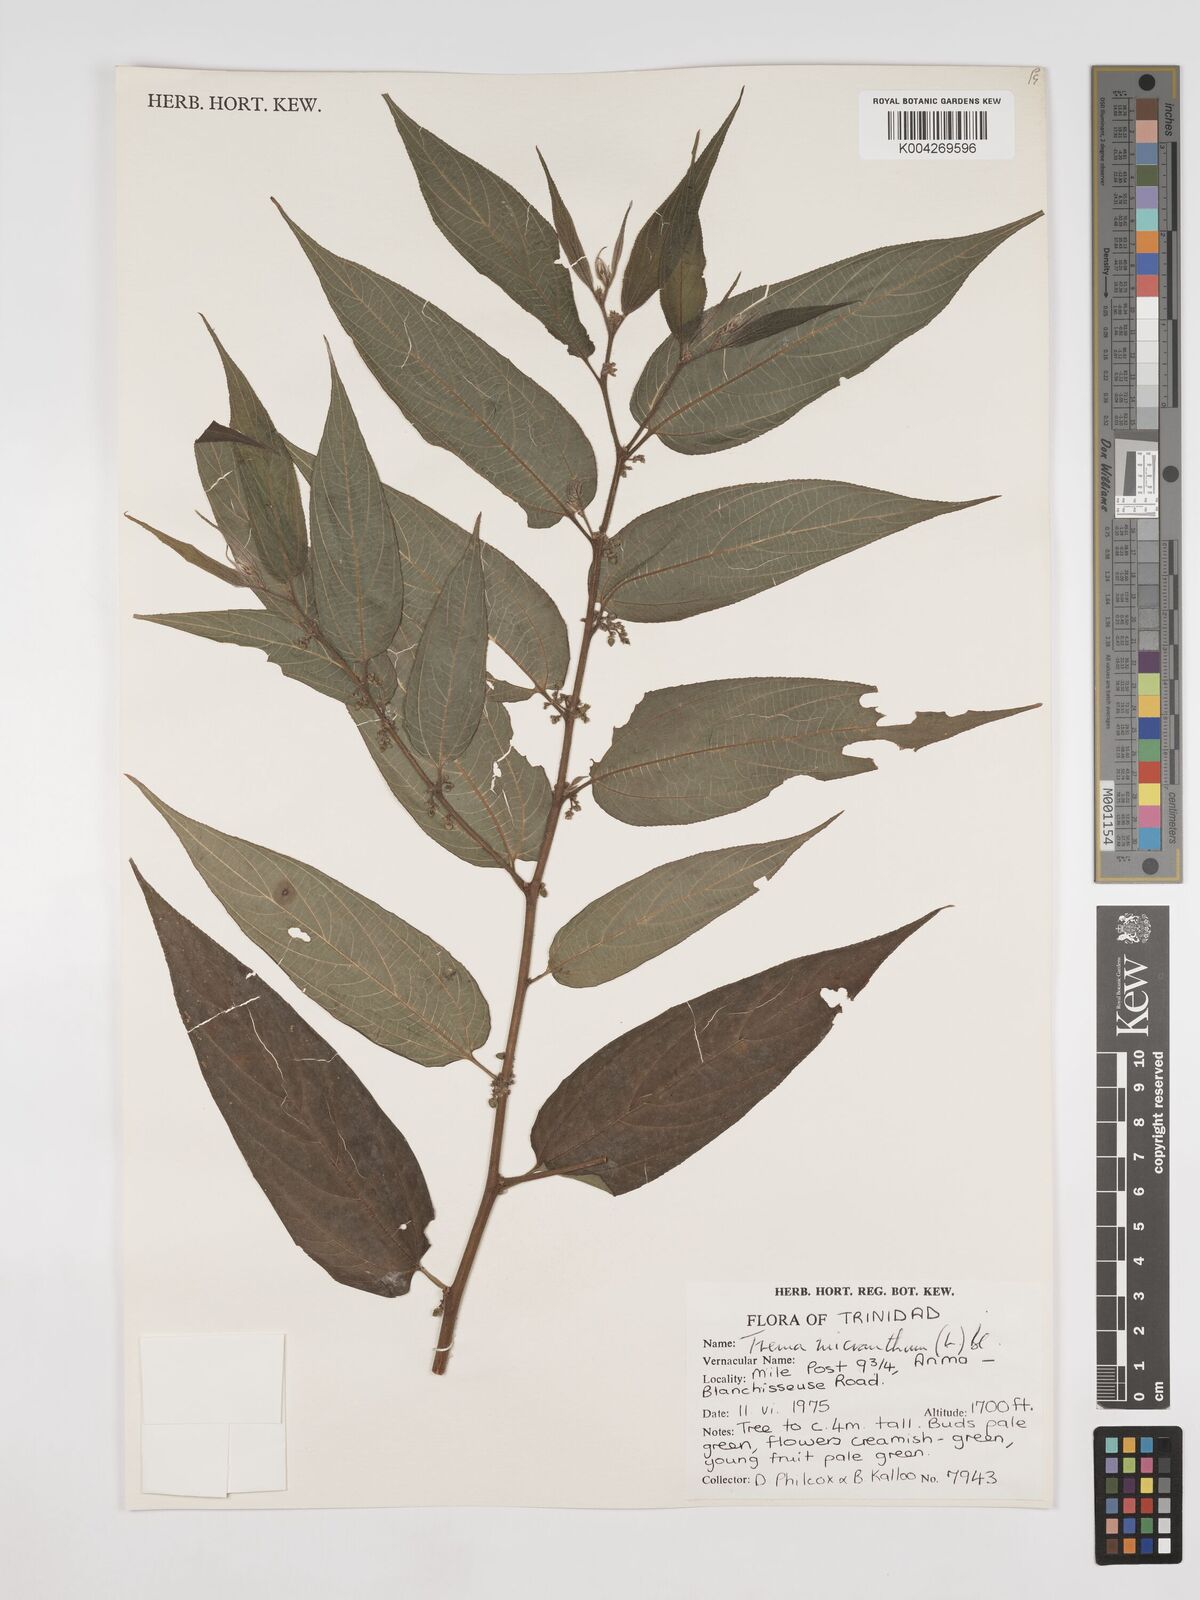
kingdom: Plantae
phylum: Tracheophyta
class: Magnoliopsida
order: Rosales
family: Cannabaceae
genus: Trema
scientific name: Trema micranthum
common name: Jamaican nettletree
